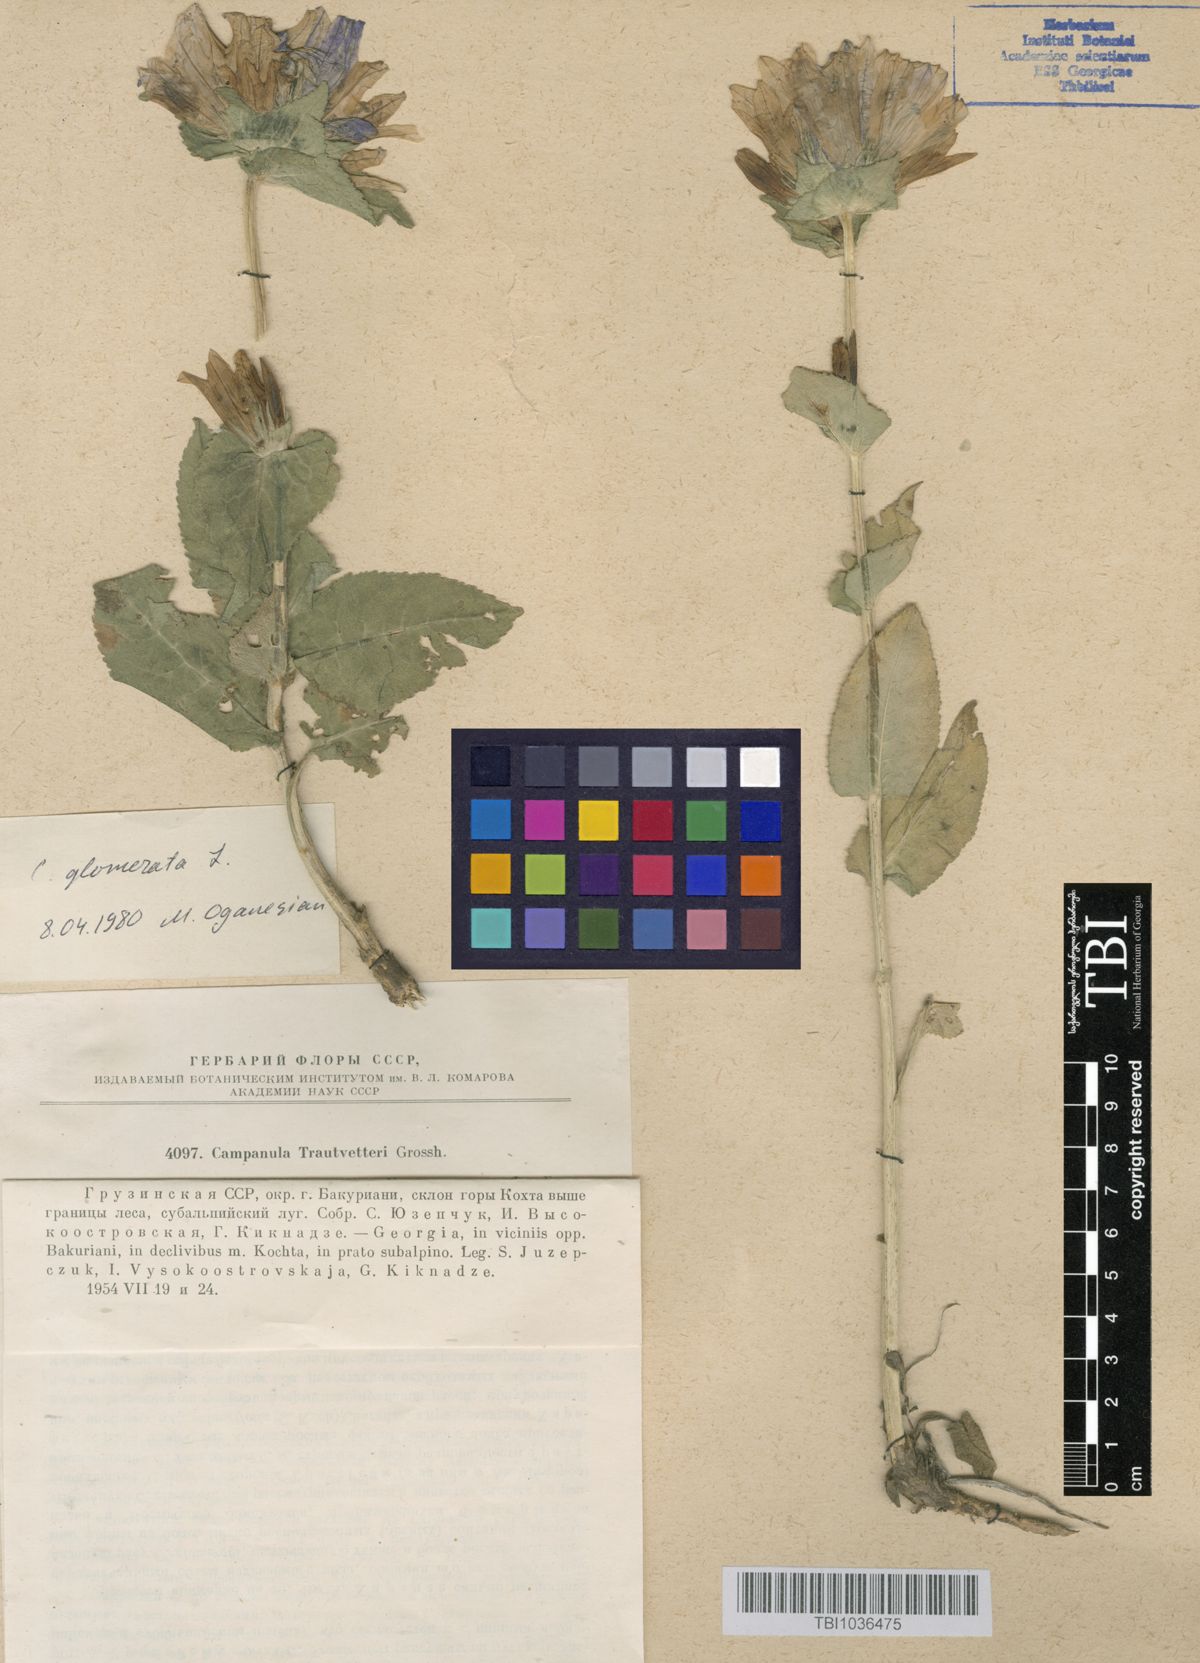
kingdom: Plantae
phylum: Tracheophyta
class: Magnoliopsida
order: Asterales
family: Campanulaceae
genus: Campanula
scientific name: Campanula glomerata
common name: Clustered bellflower
